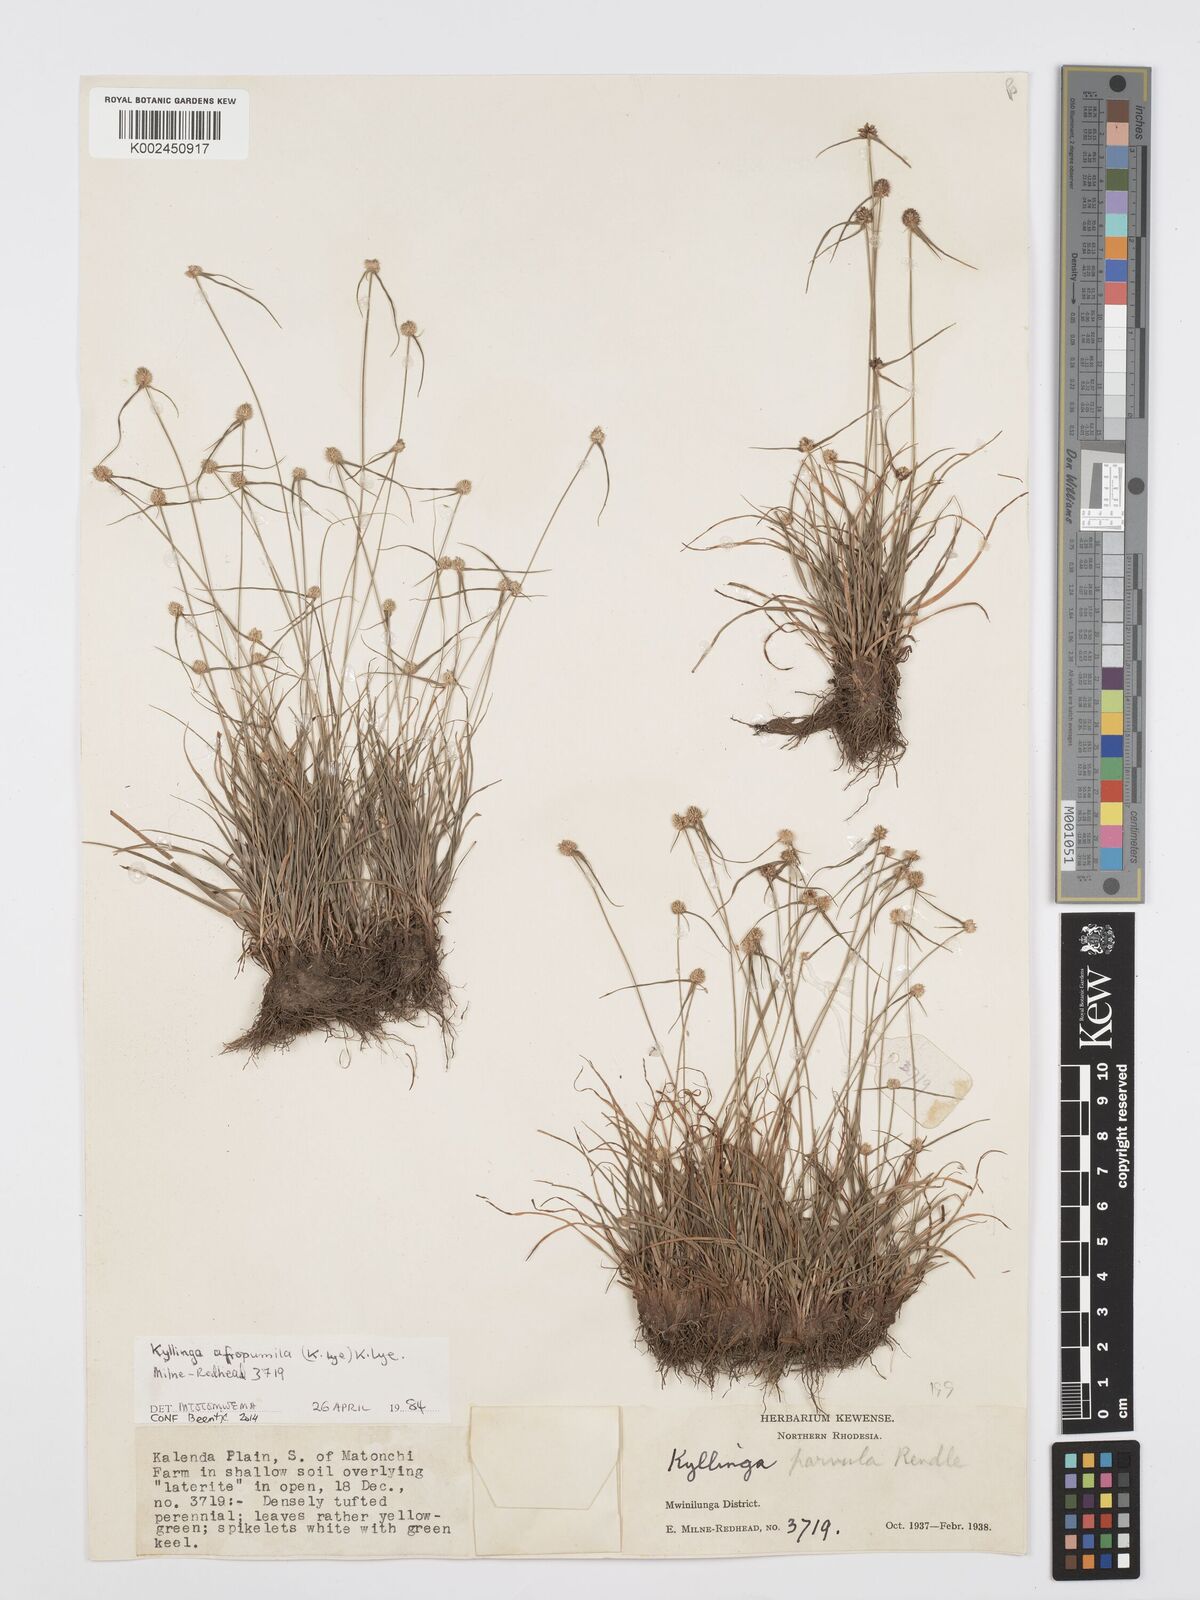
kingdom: Plantae
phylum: Tracheophyta
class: Liliopsida
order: Poales
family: Cyperaceae
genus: Cyperus
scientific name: Cyperus afropumilus
